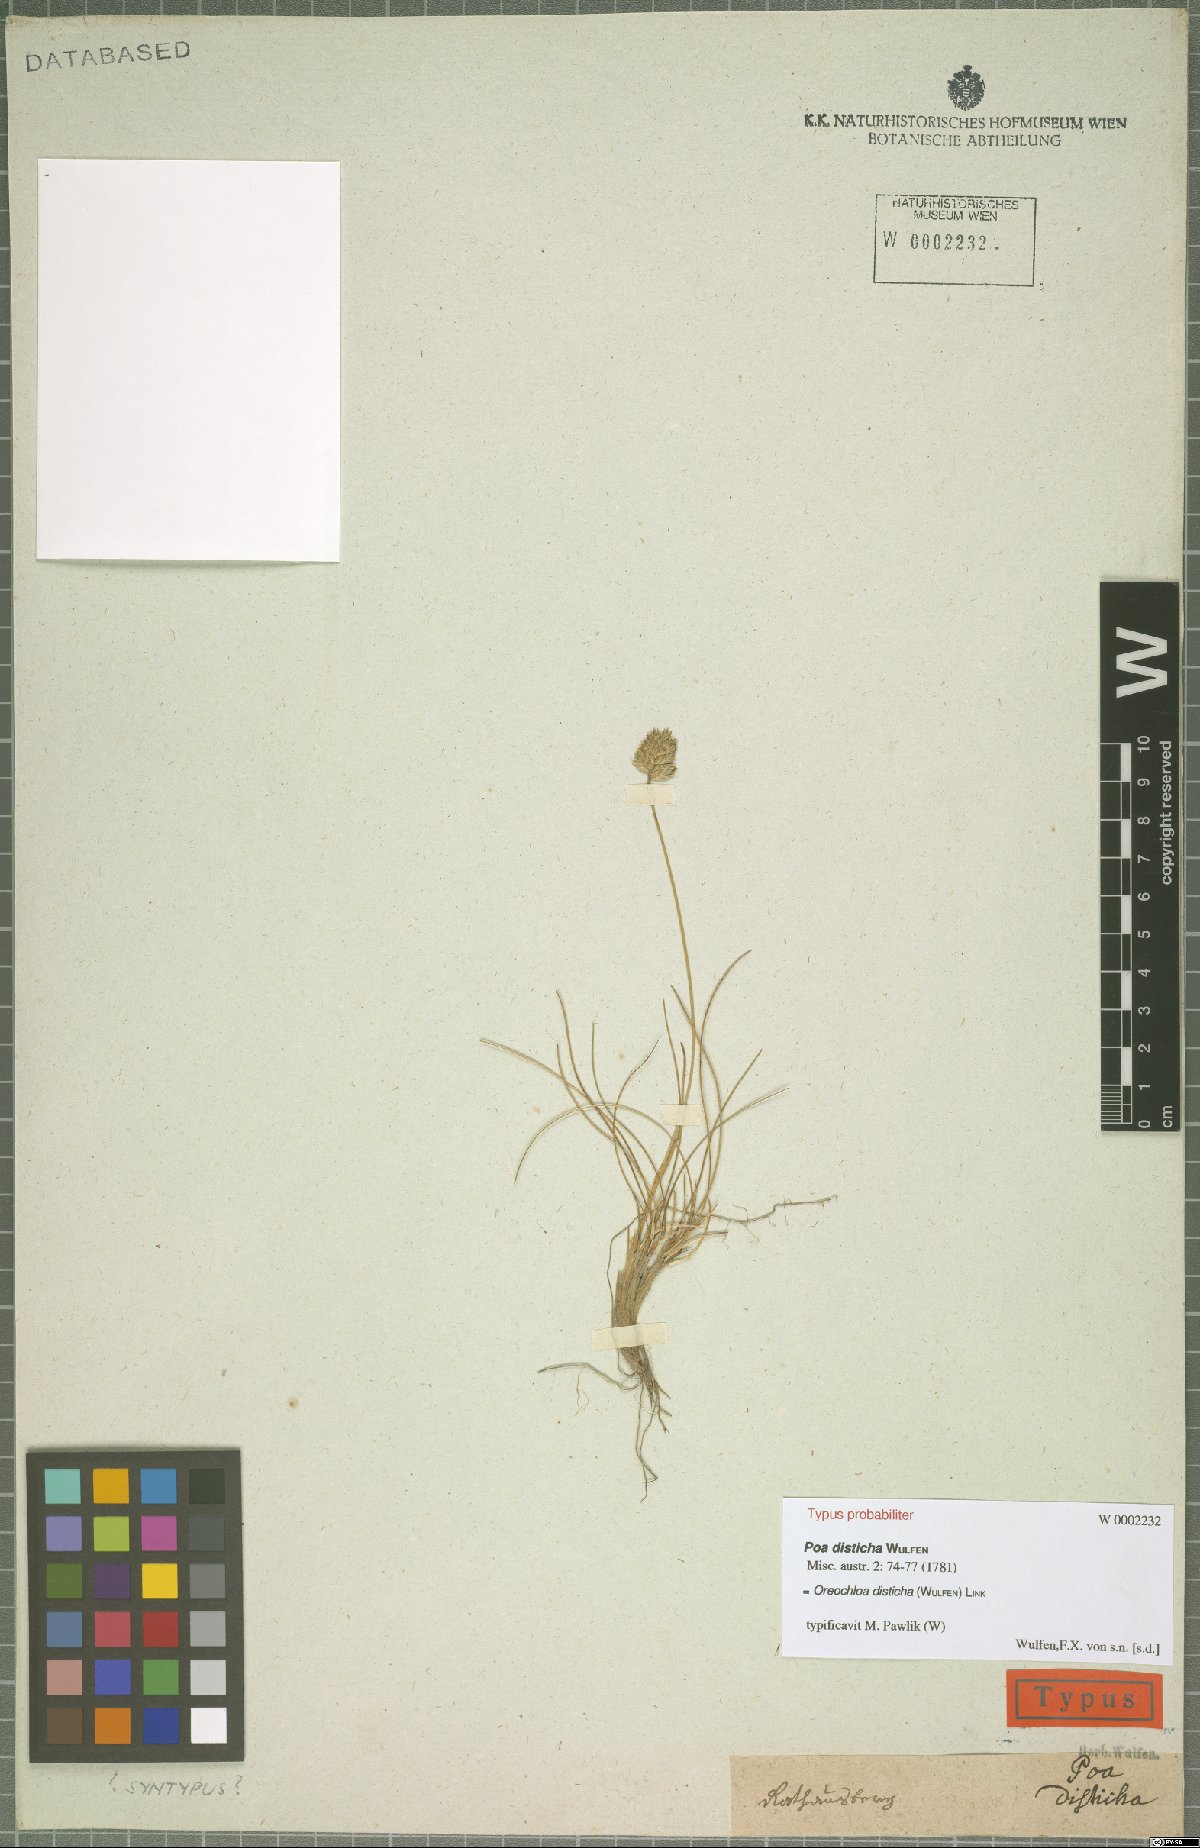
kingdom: Plantae
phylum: Tracheophyta
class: Liliopsida
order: Poales
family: Poaceae
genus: Oreochloa
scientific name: Oreochloa disticha
